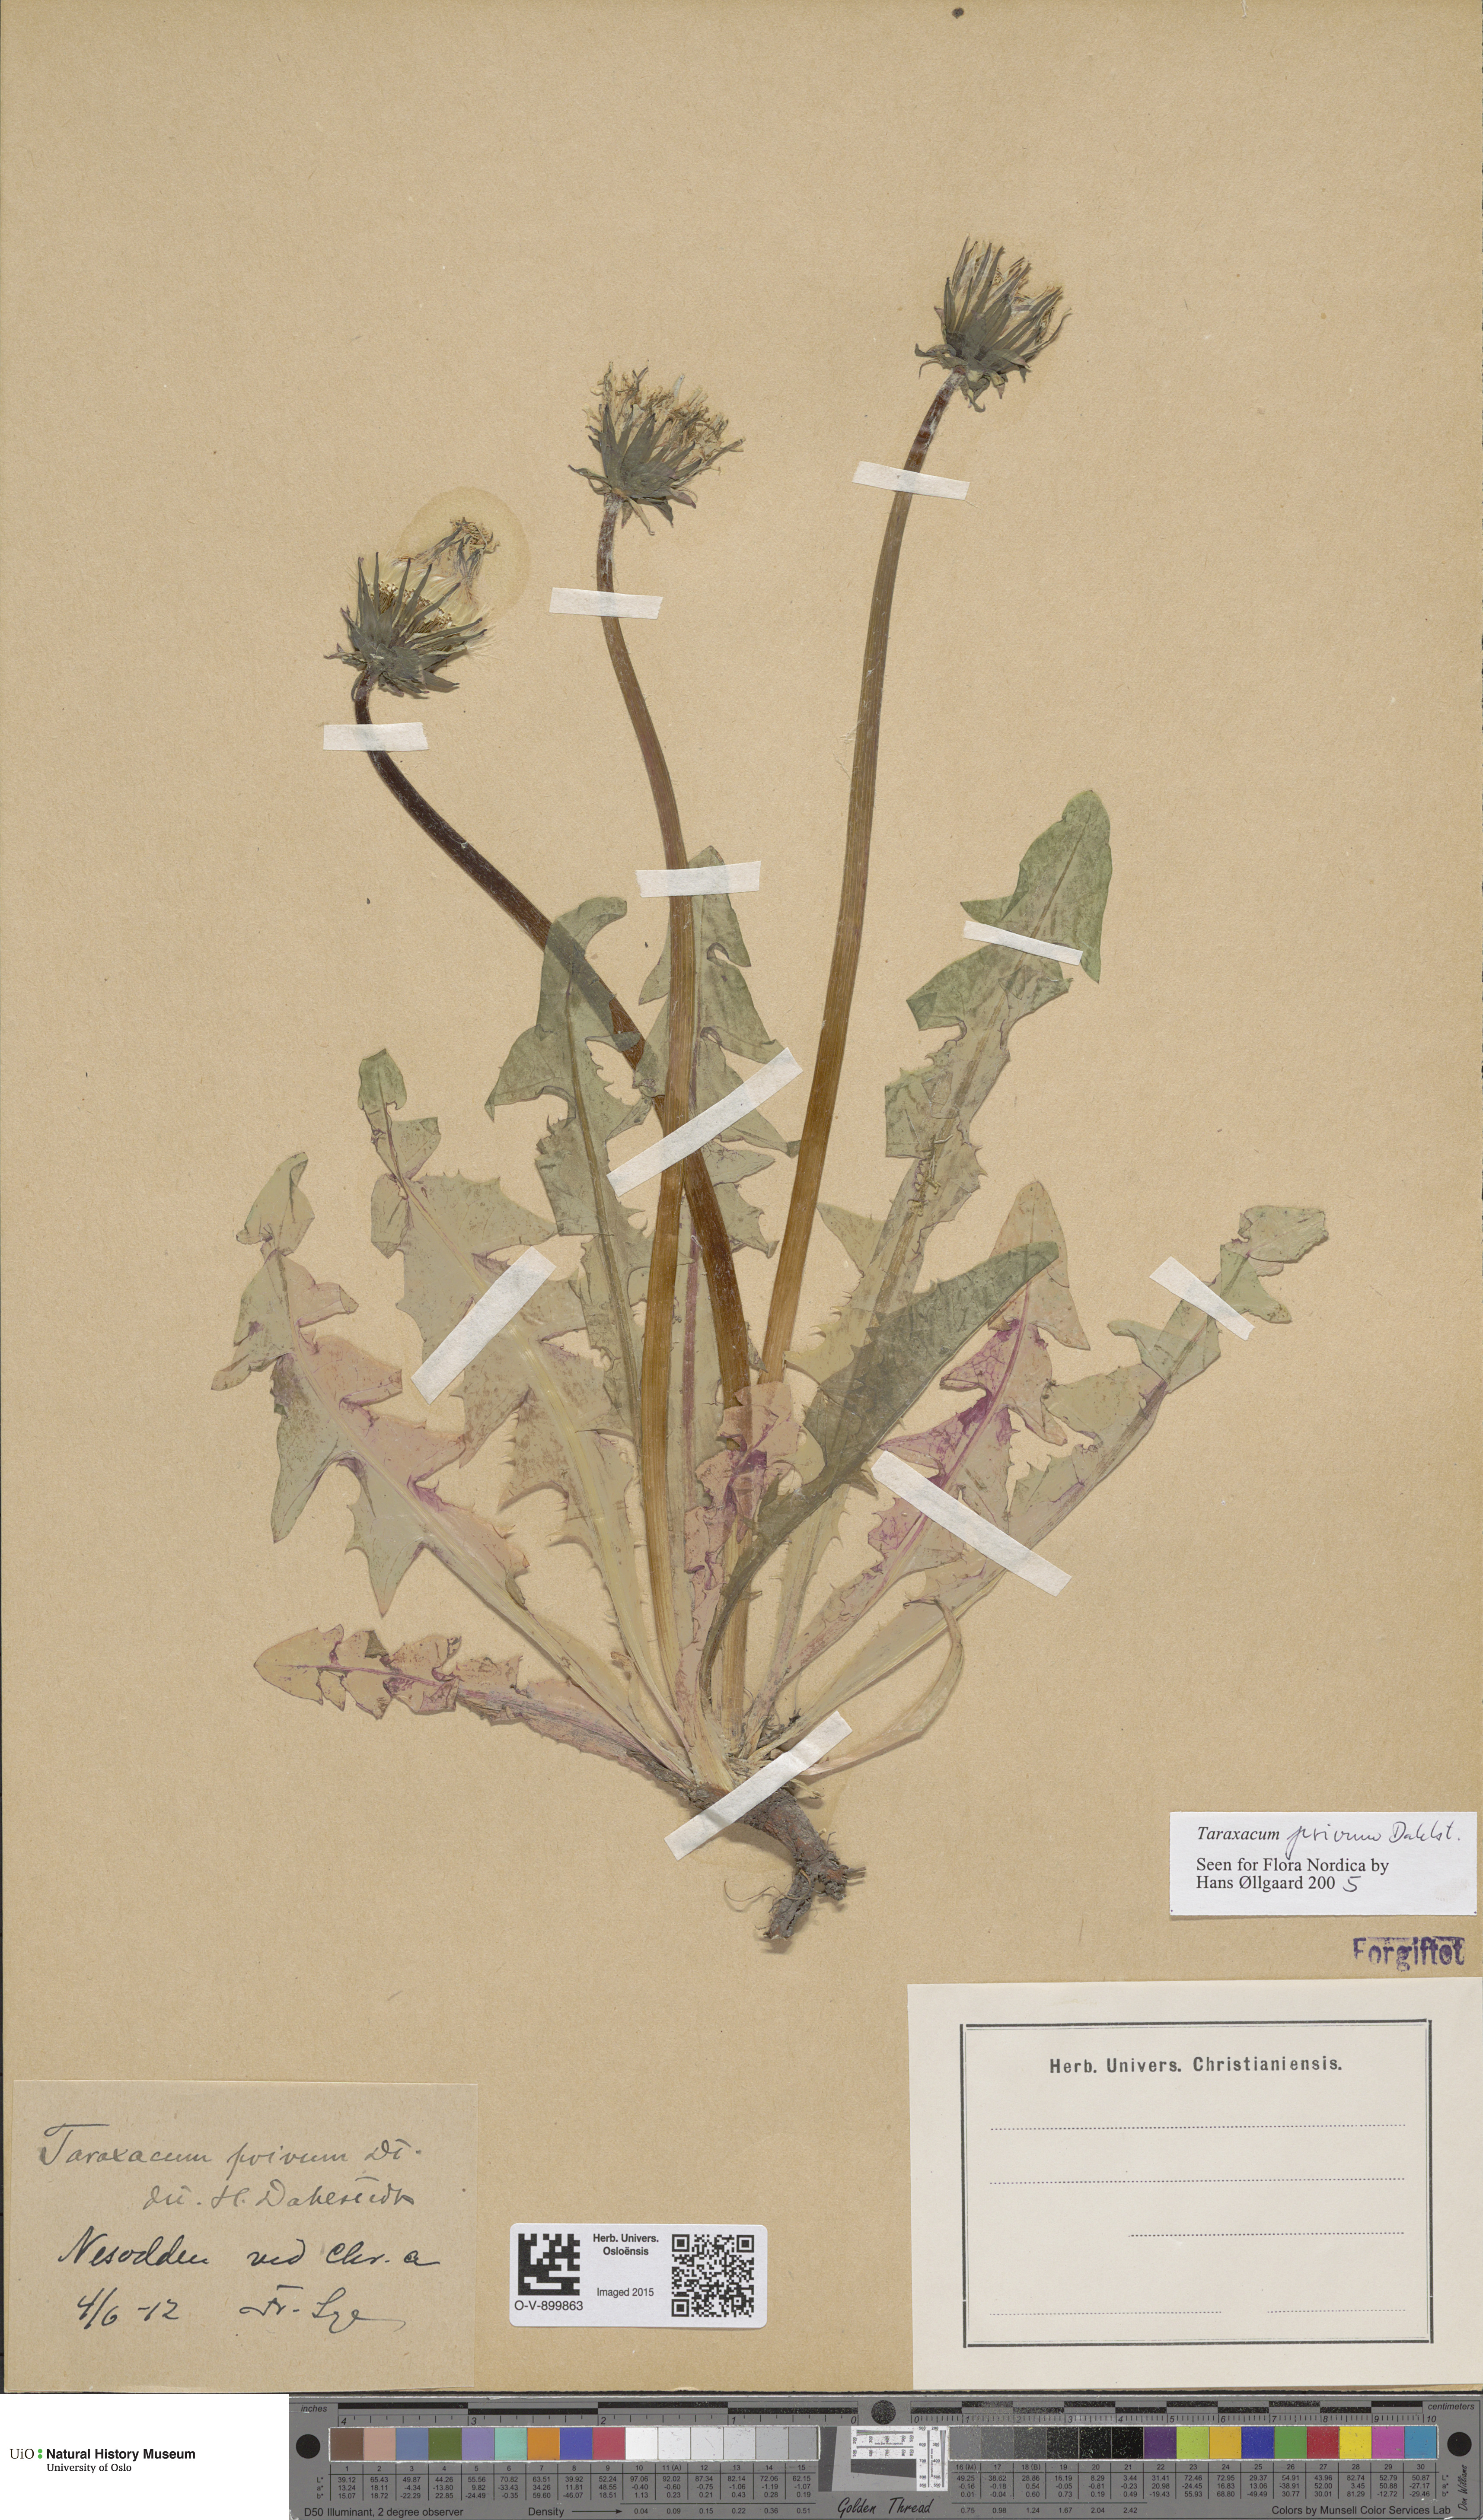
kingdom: Plantae
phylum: Tracheophyta
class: Magnoliopsida
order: Asterales
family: Asteraceae
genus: Taraxacum
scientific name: Taraxacum privum
